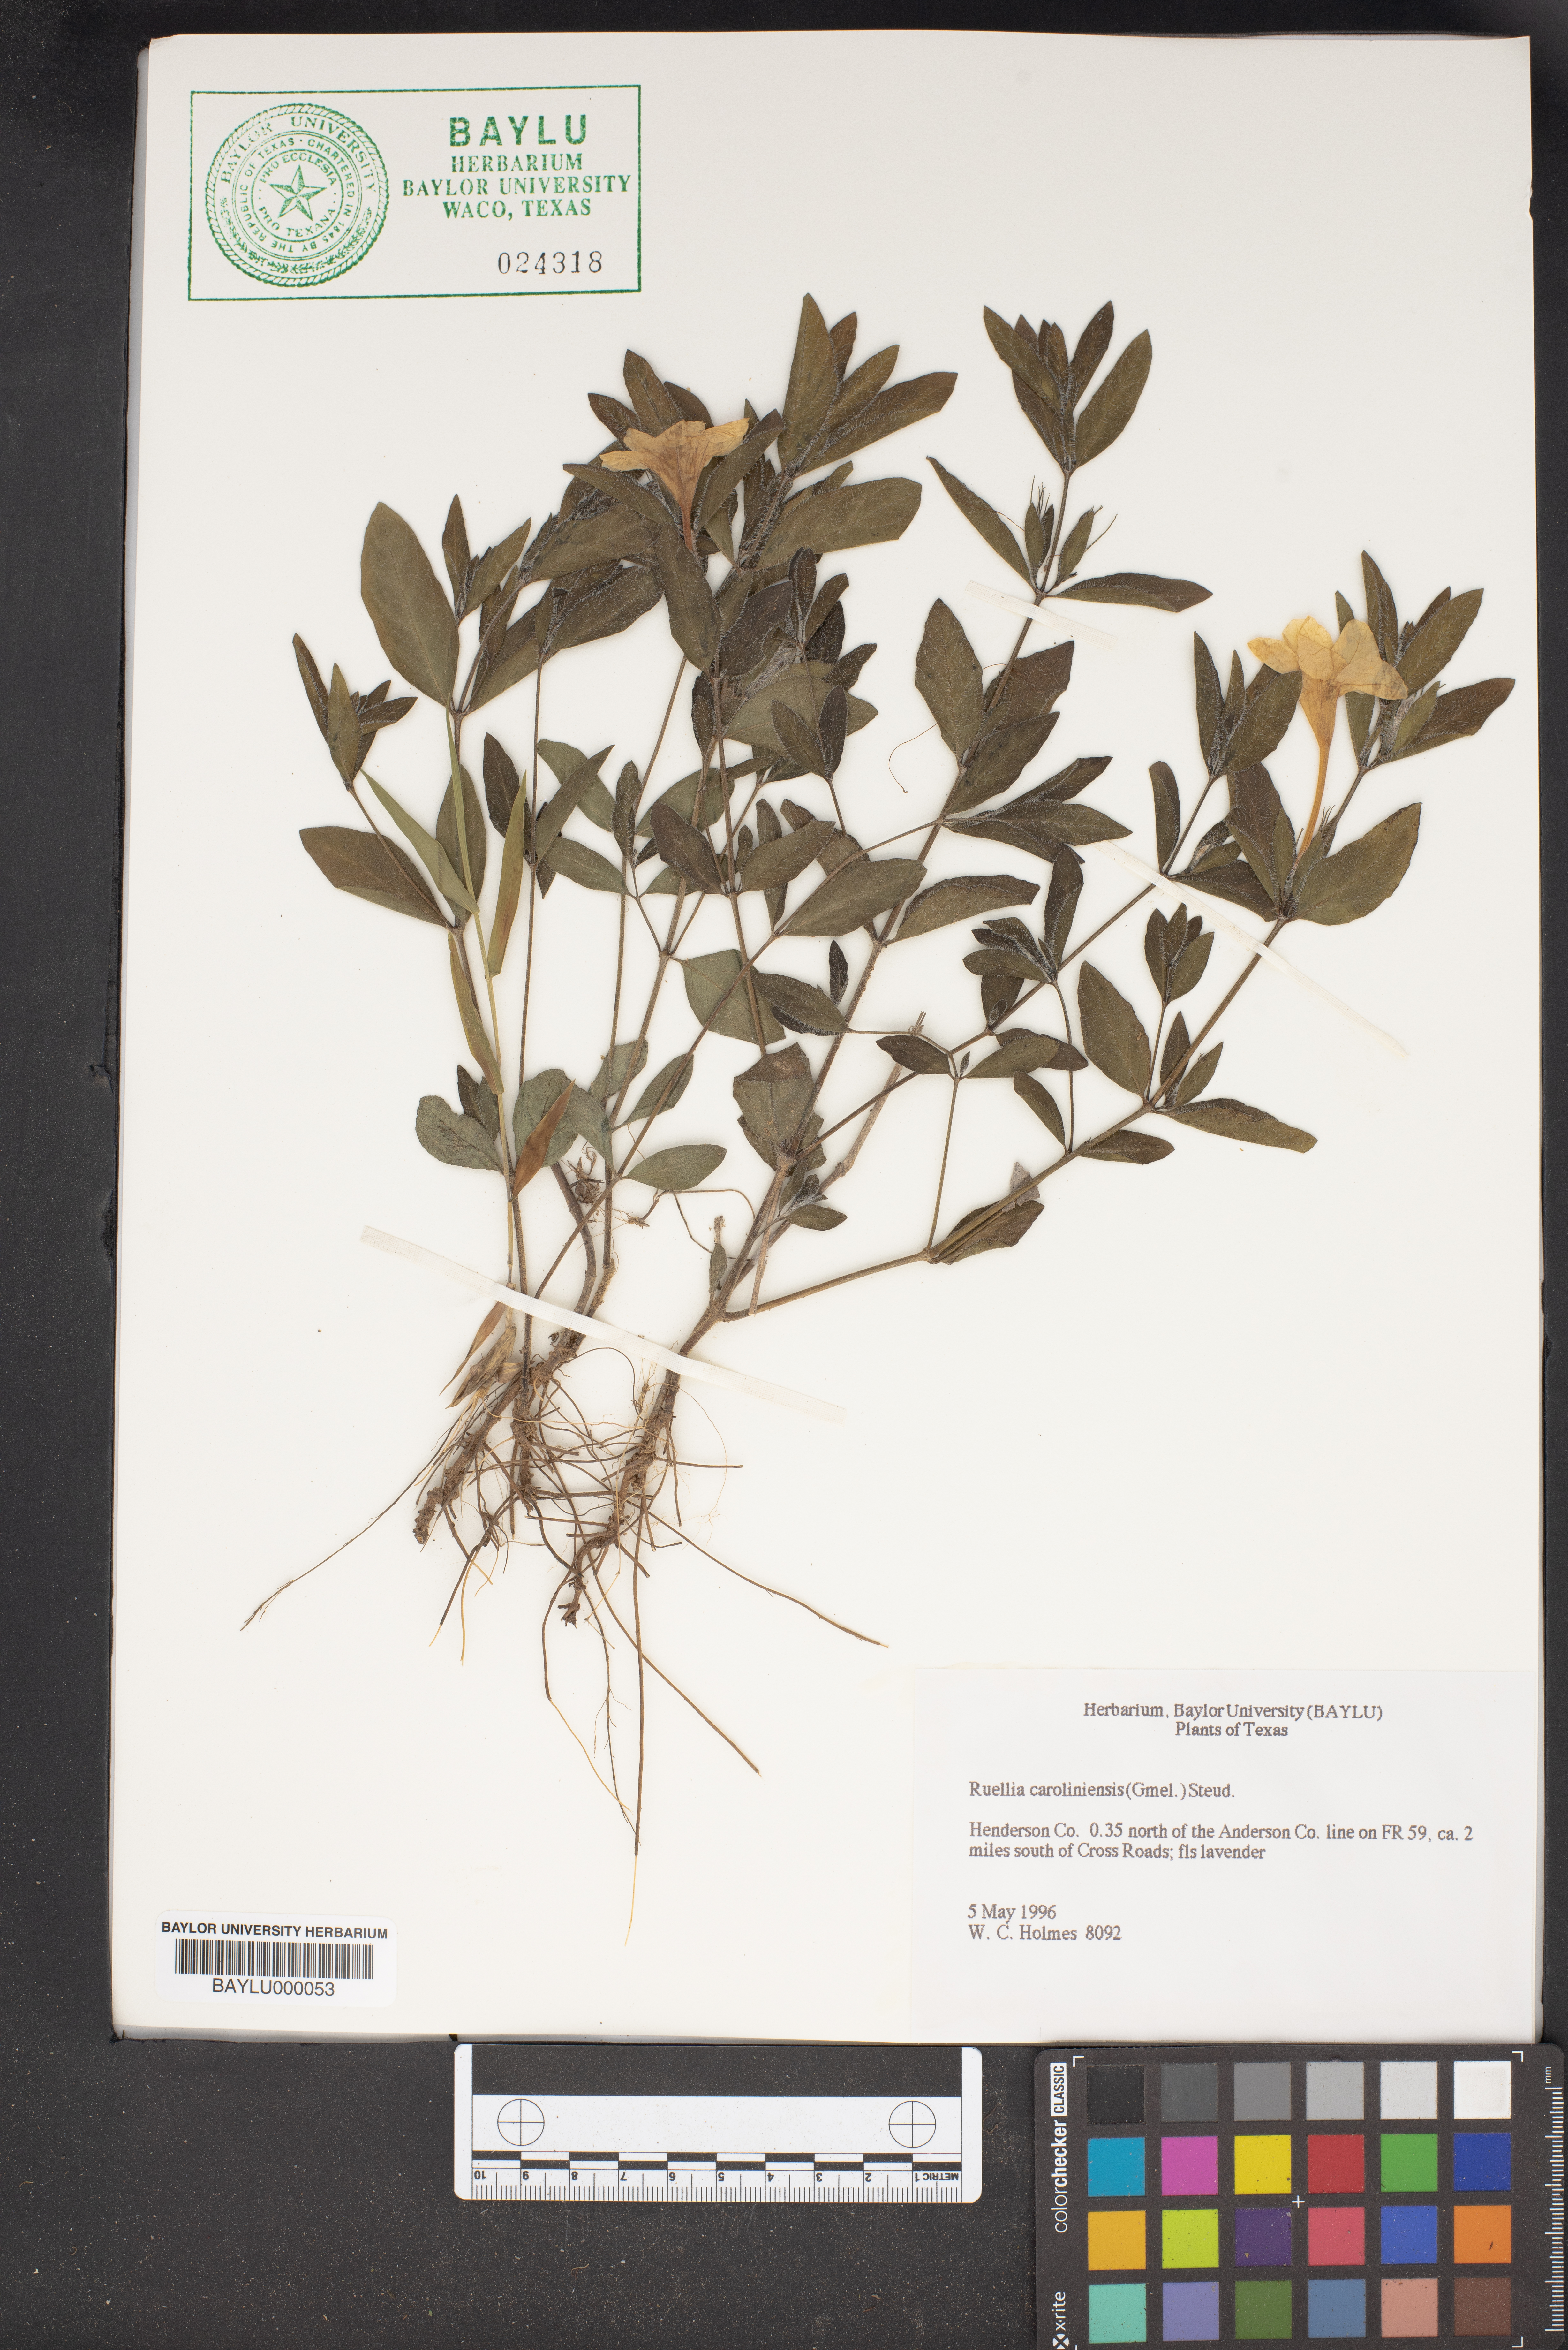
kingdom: Plantae
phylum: Tracheophyta
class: Magnoliopsida
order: Lamiales
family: Acanthaceae
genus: Ruellia
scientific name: Ruellia caroliniensis
